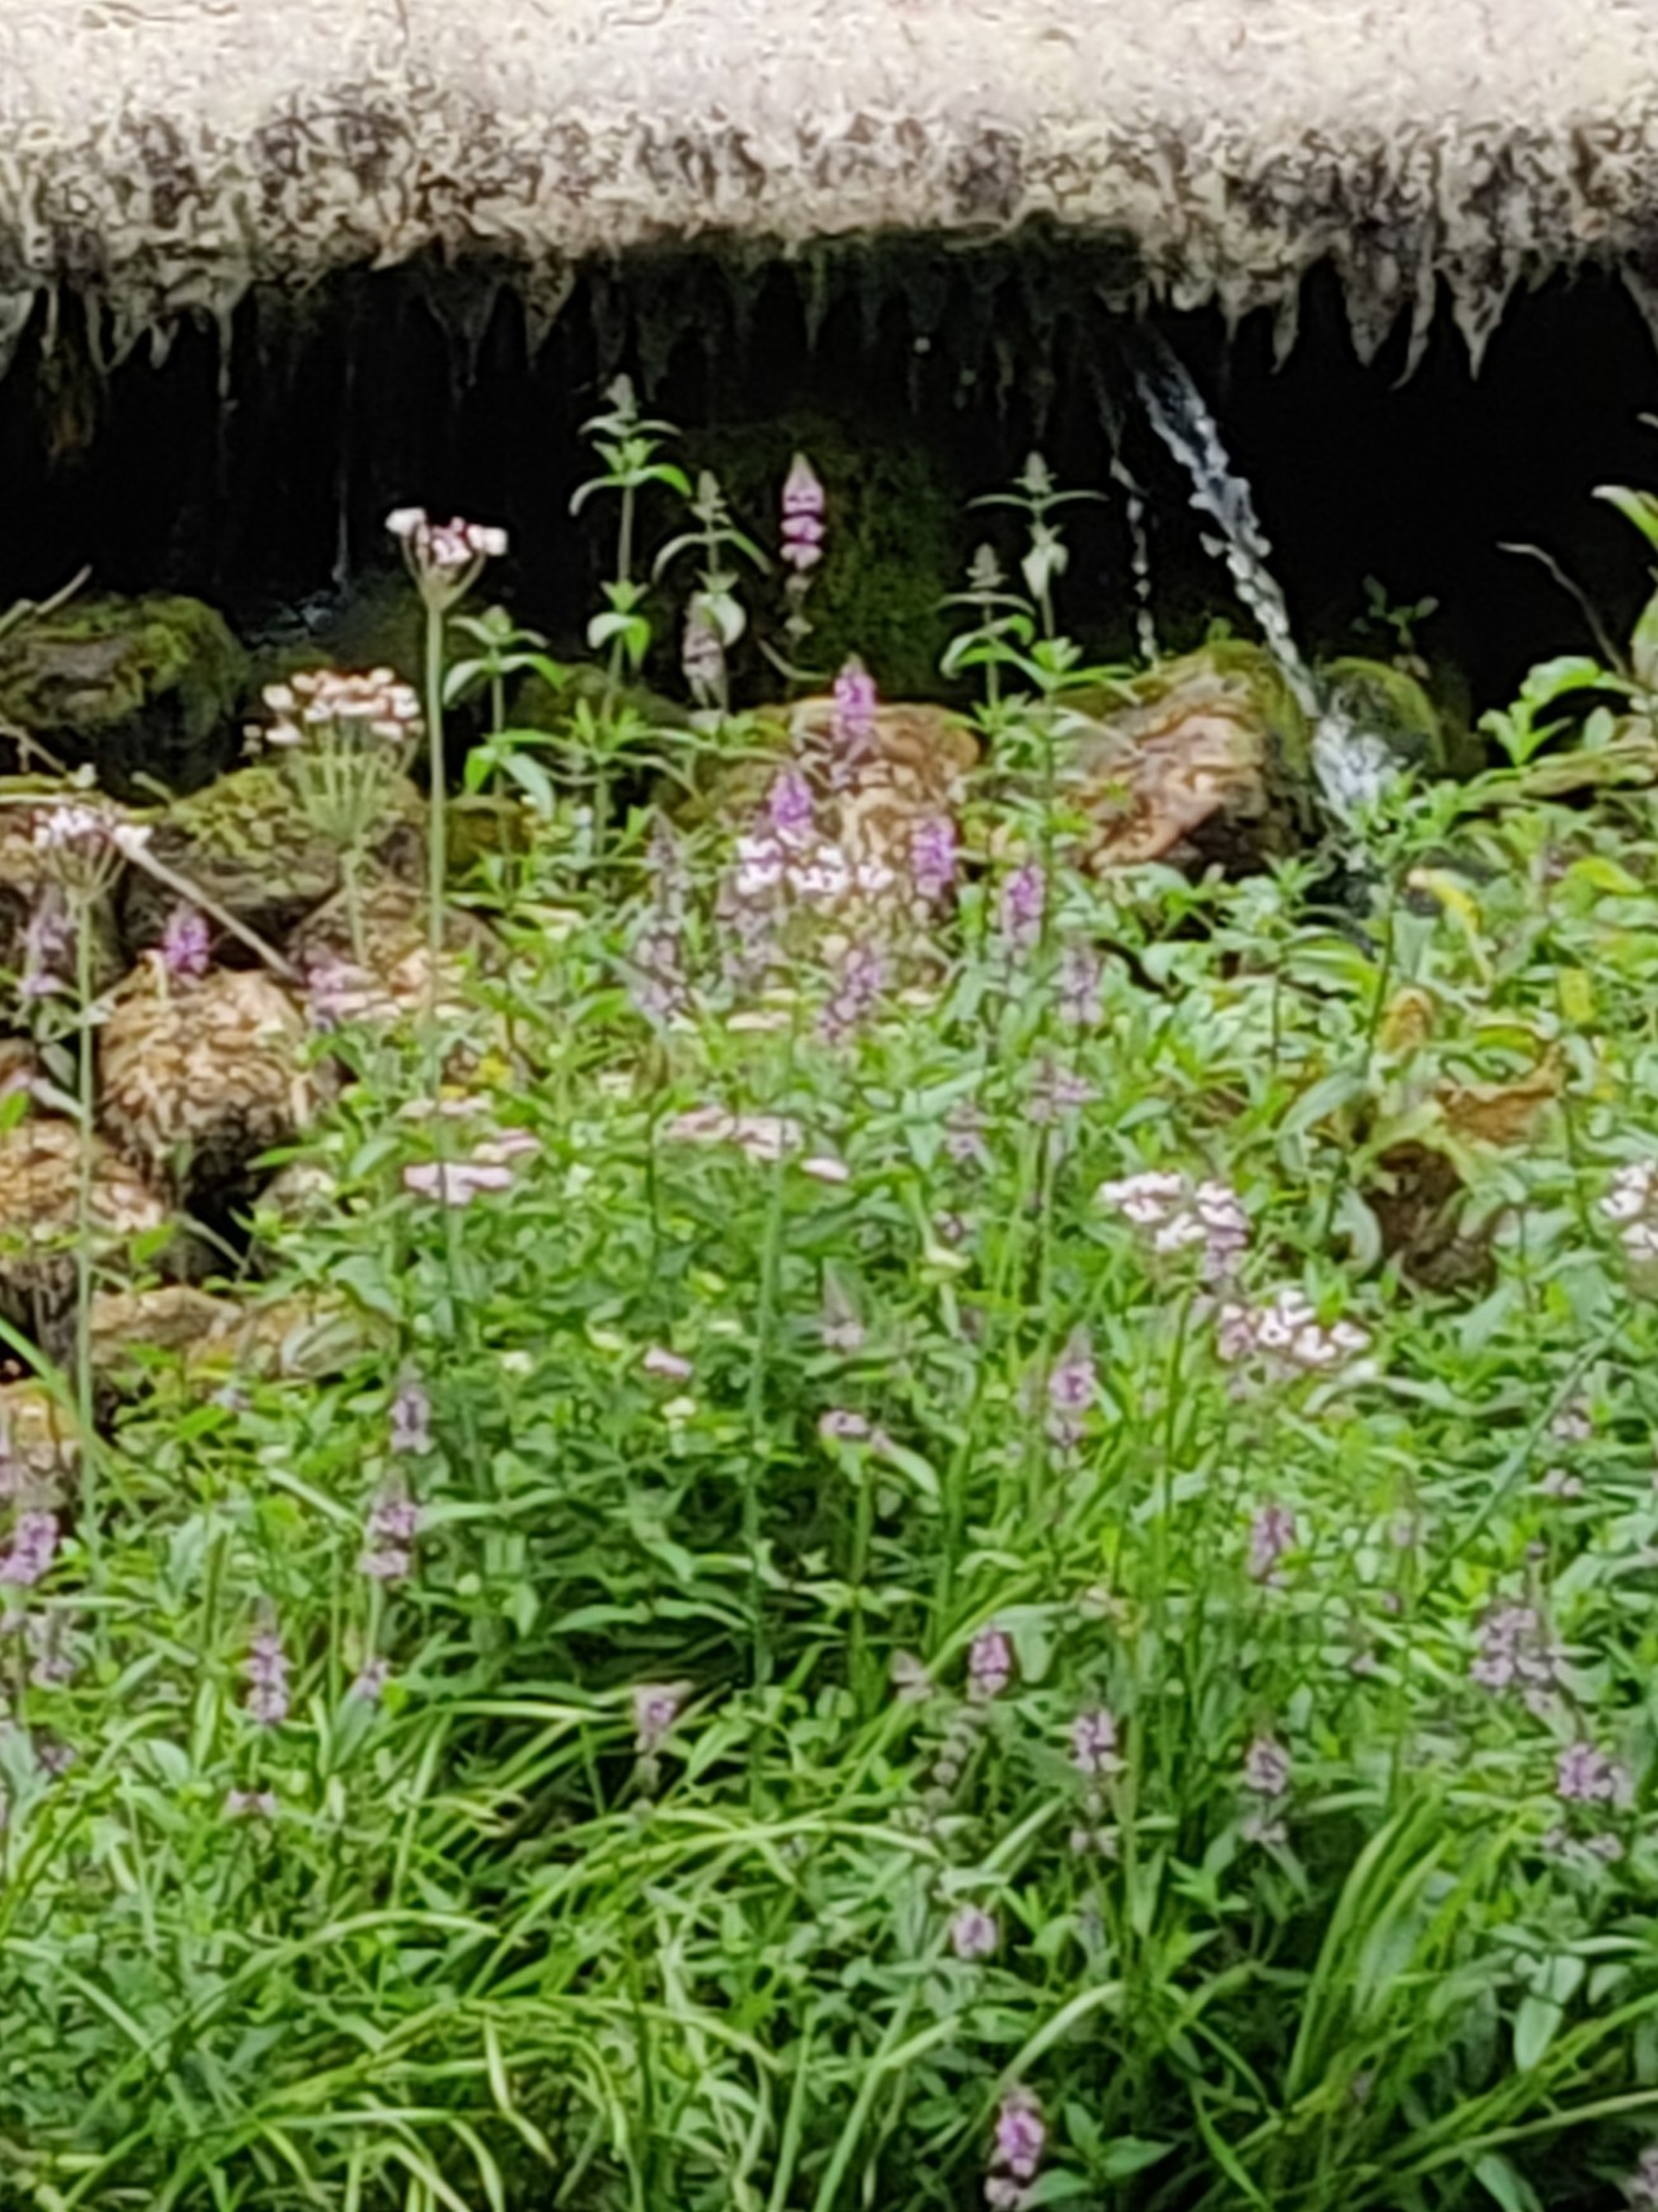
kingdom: Plantae
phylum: Tracheophyta
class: Liliopsida
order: Alismatales
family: Butomaceae
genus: Butomus
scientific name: Butomus umbellatus
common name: Brudelys
